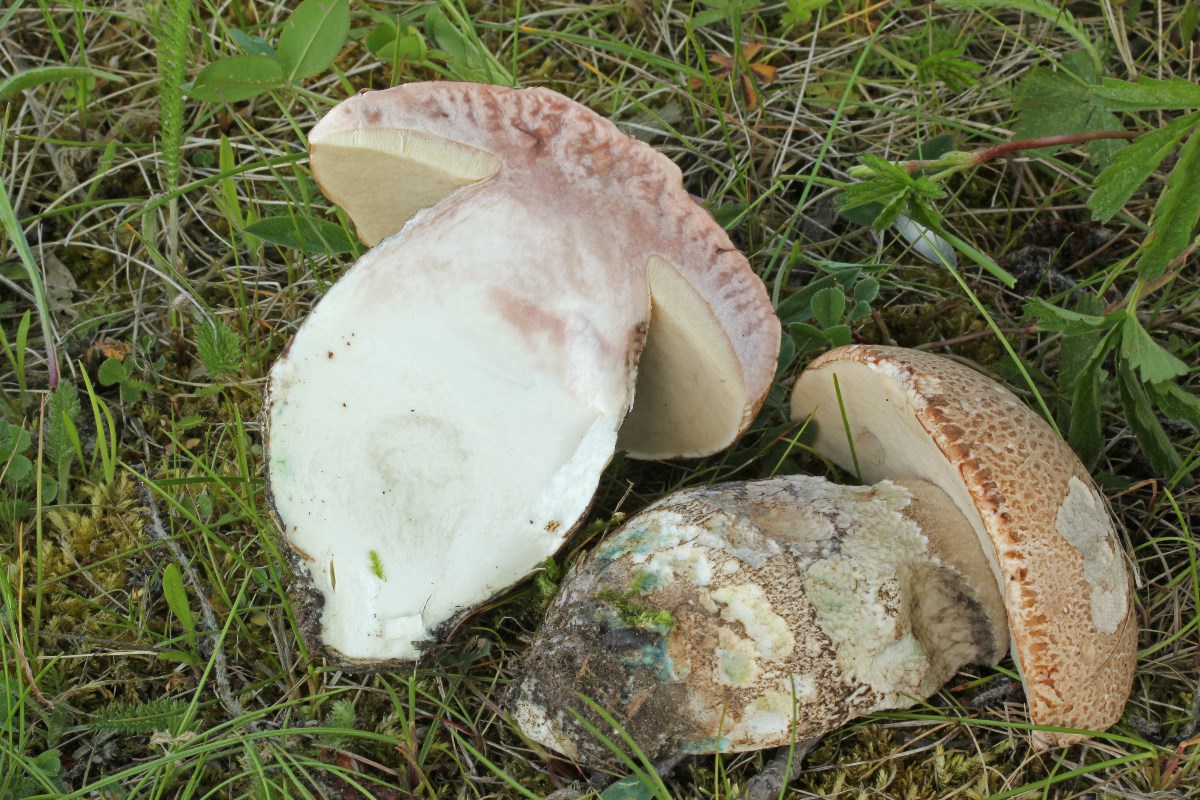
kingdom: Fungi
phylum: Basidiomycota
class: Agaricomycetes
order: Boletales
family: Boletaceae
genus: Leccinum
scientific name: Leccinum duriusculum
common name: poppel-skælrørhat
